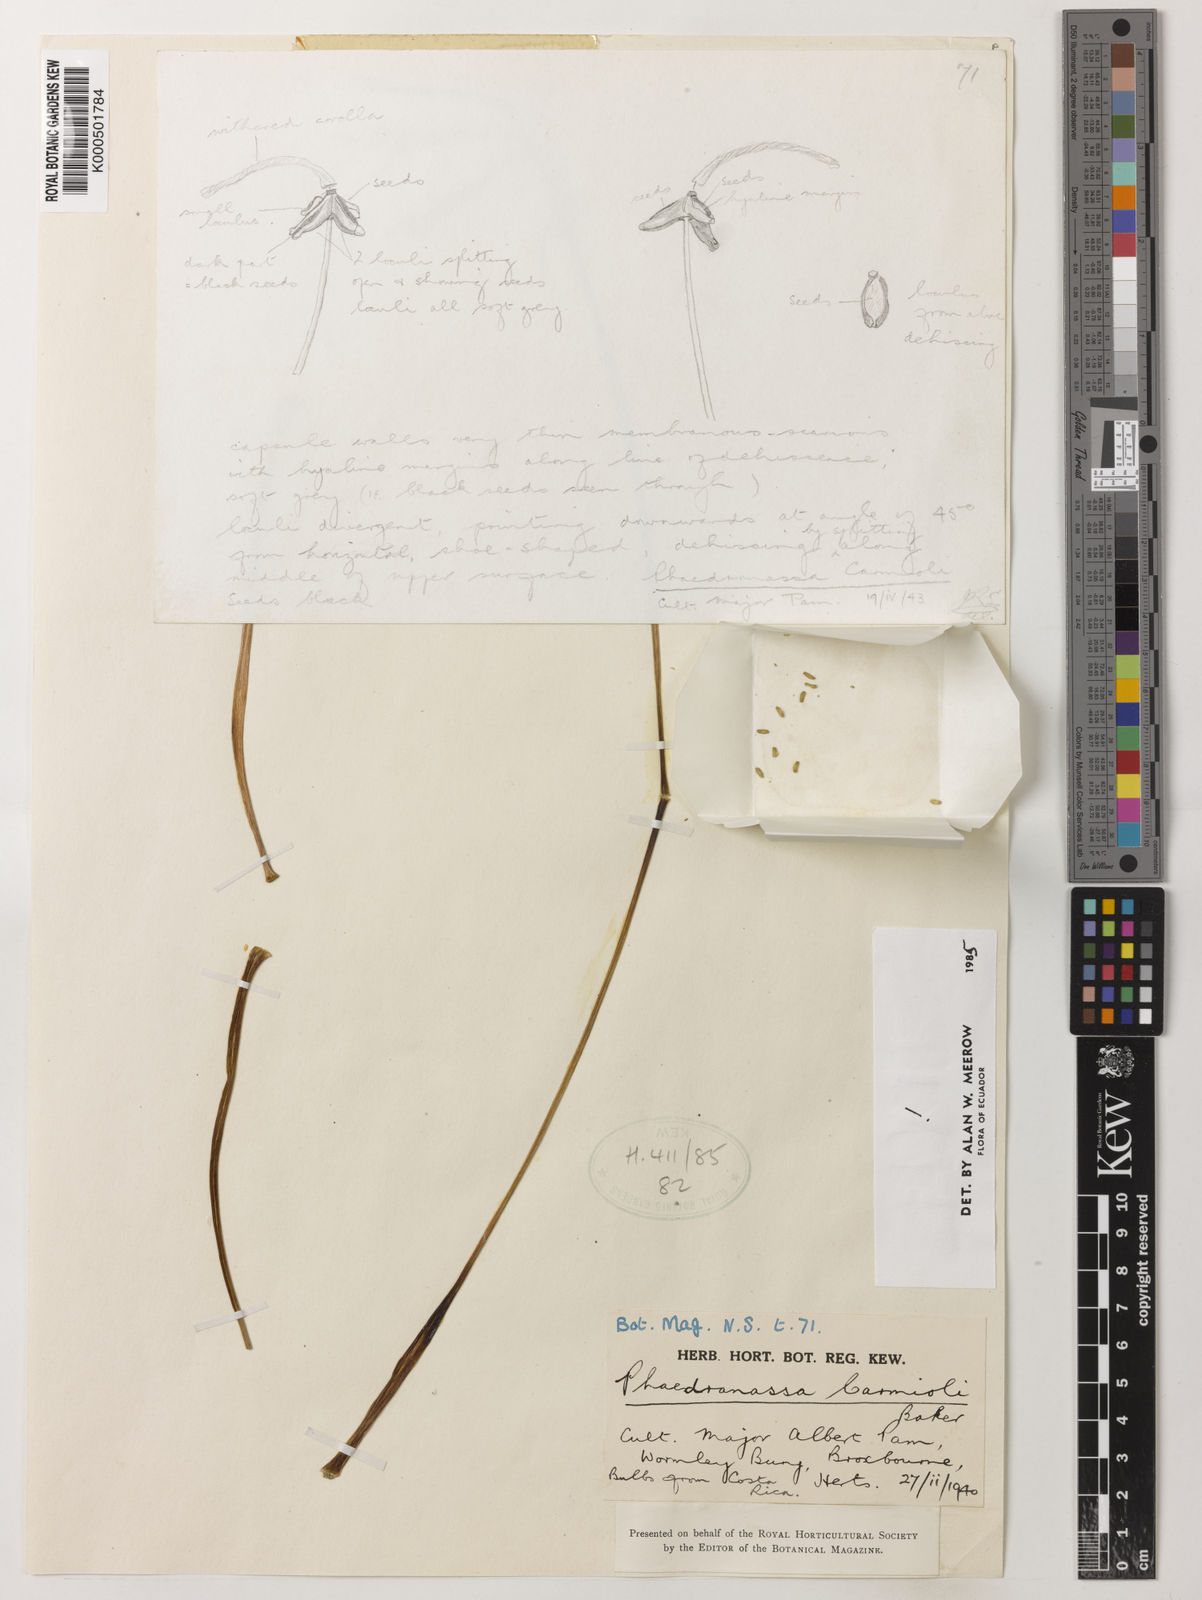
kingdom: Plantae
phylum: Tracheophyta
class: Liliopsida
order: Asparagales
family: Amaryllidaceae
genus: Phaedranassa
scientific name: Phaedranassa carmiolii
